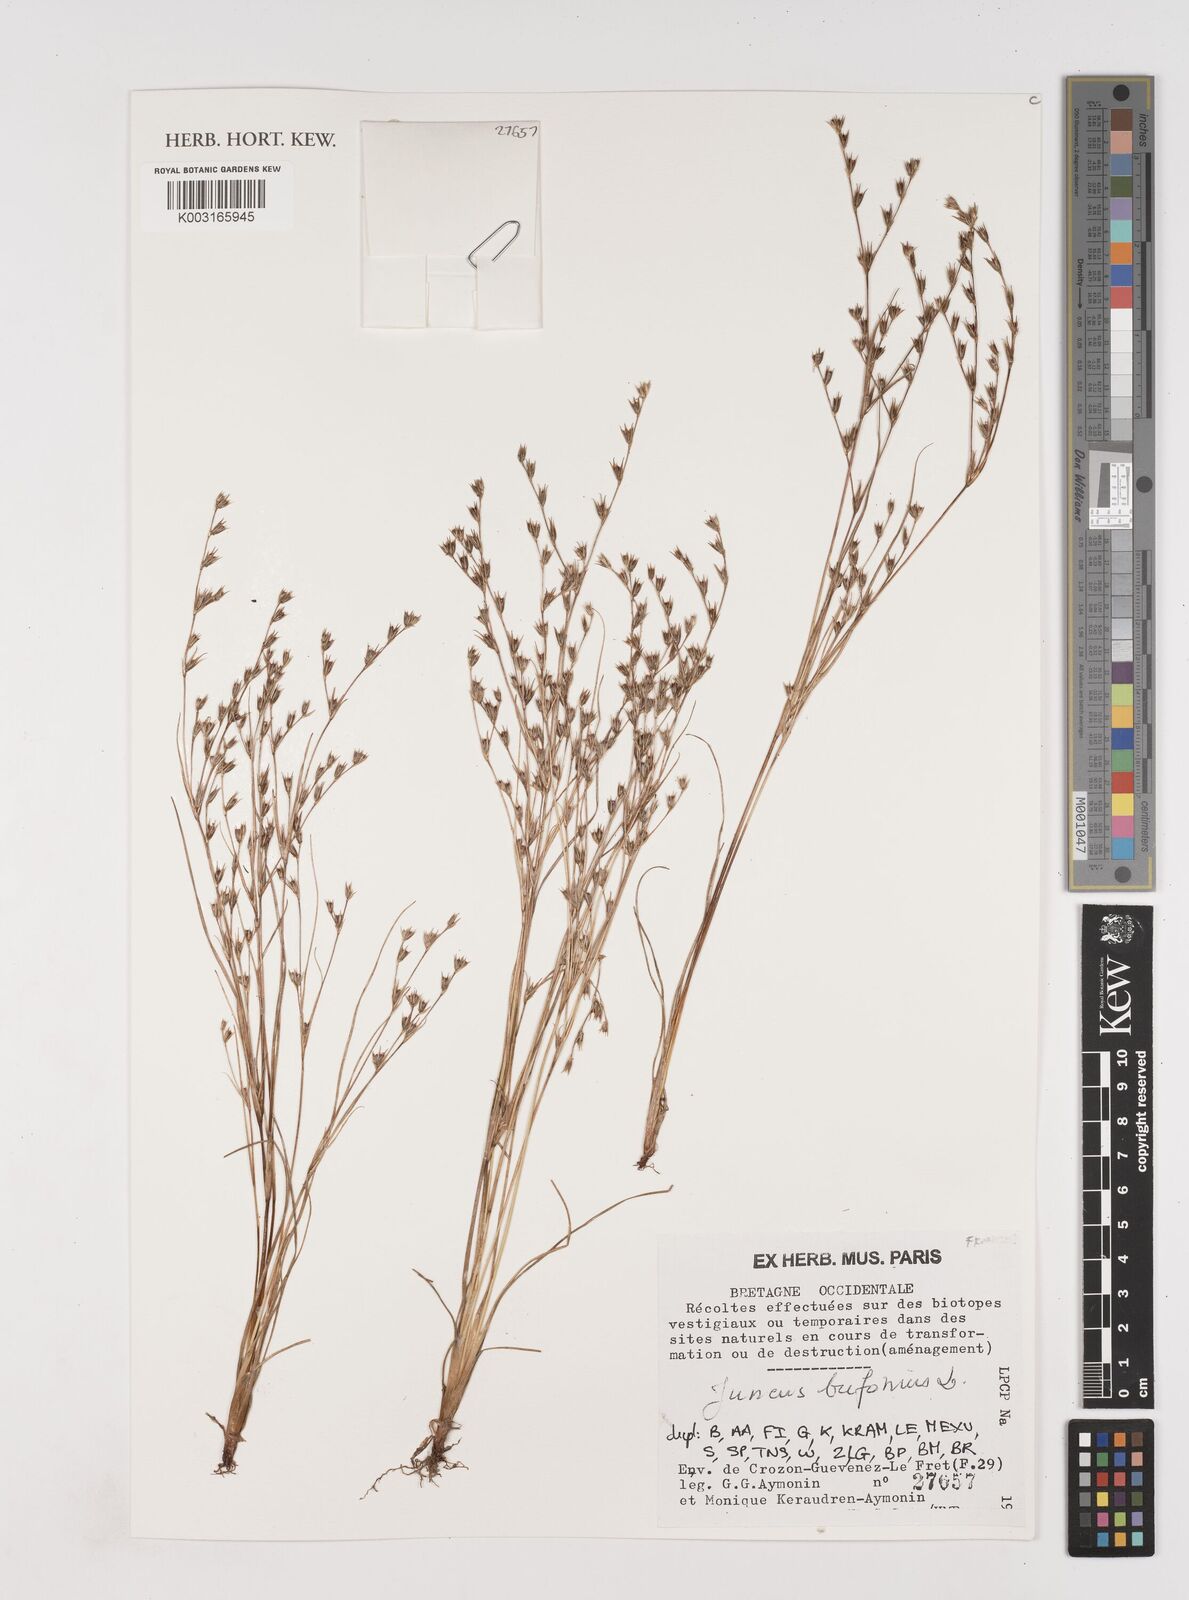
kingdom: Plantae
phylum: Tracheophyta
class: Liliopsida
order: Poales
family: Juncaceae
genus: Juncus
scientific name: Juncus bufonius
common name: Toad rush
